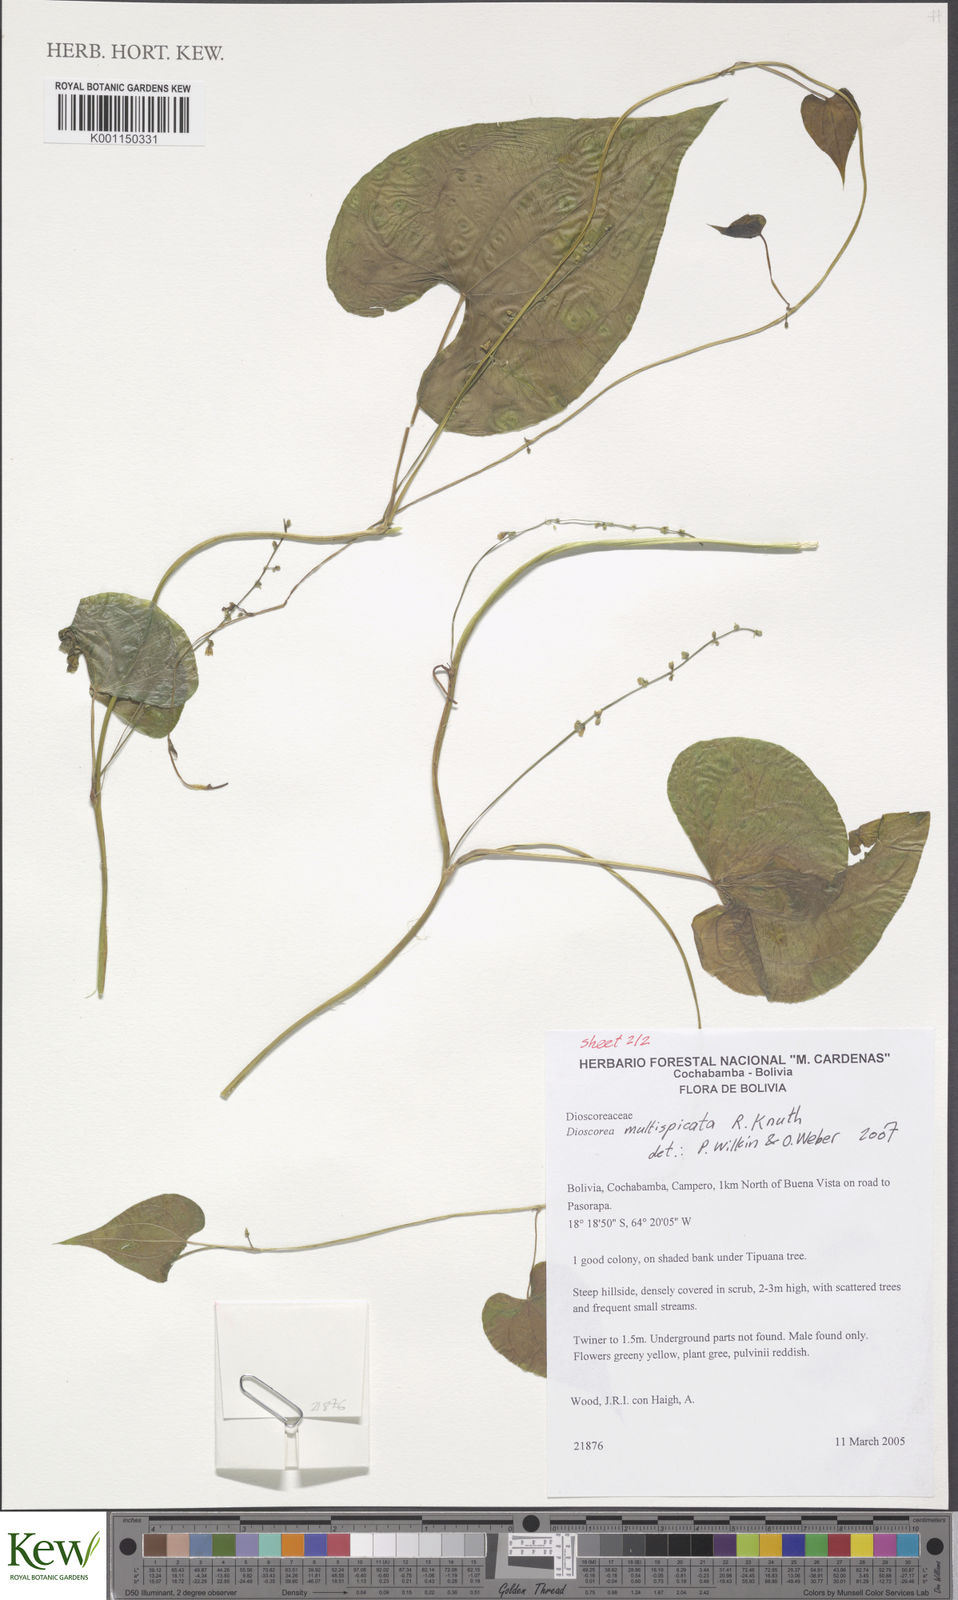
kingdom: Plantae
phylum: Tracheophyta
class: Liliopsida
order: Dioscoreales
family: Dioscoreaceae
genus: Dioscorea
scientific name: Dioscorea multispicata
